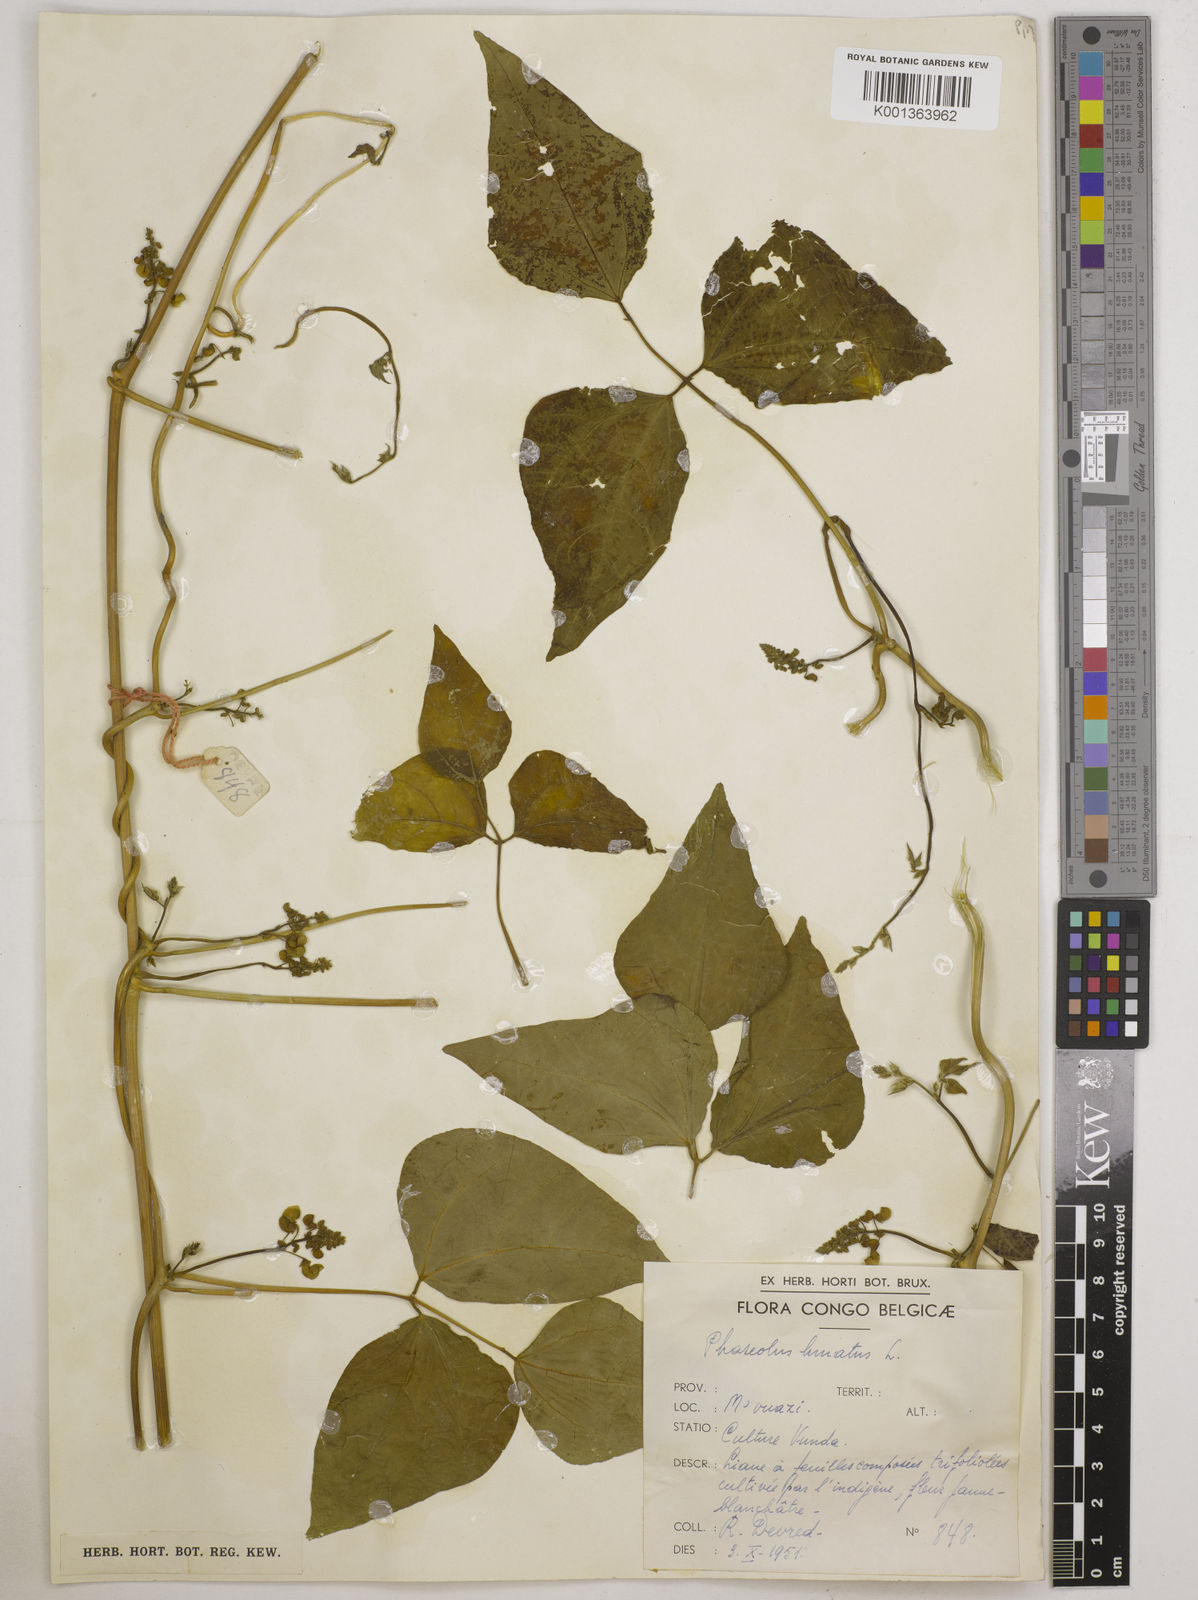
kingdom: Plantae
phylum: Tracheophyta
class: Magnoliopsida
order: Fabales
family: Fabaceae
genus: Phaseolus
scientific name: Phaseolus lunatus
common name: Sieva bean
